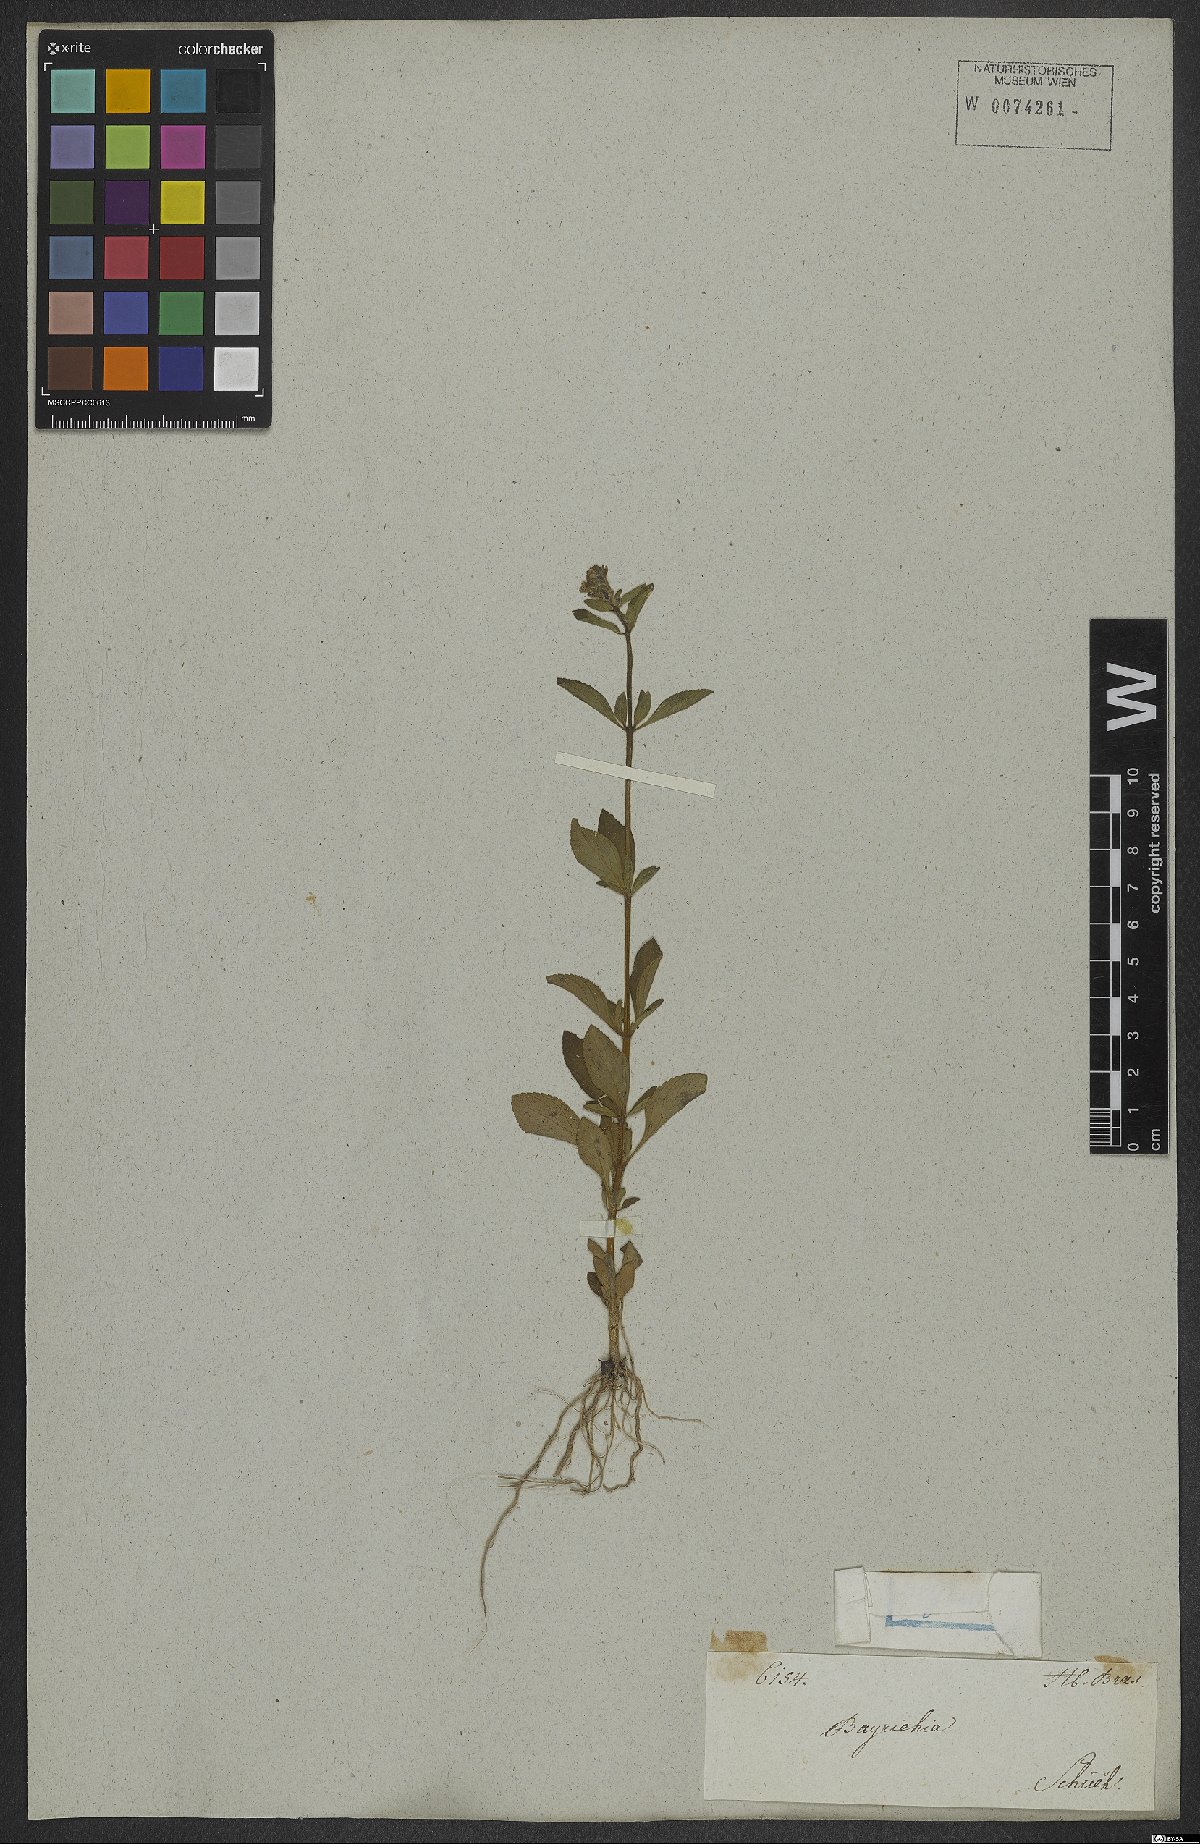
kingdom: Plantae
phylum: Tracheophyta
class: Magnoliopsida
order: Lamiales
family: Plantaginaceae
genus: Matourea
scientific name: Matourea
